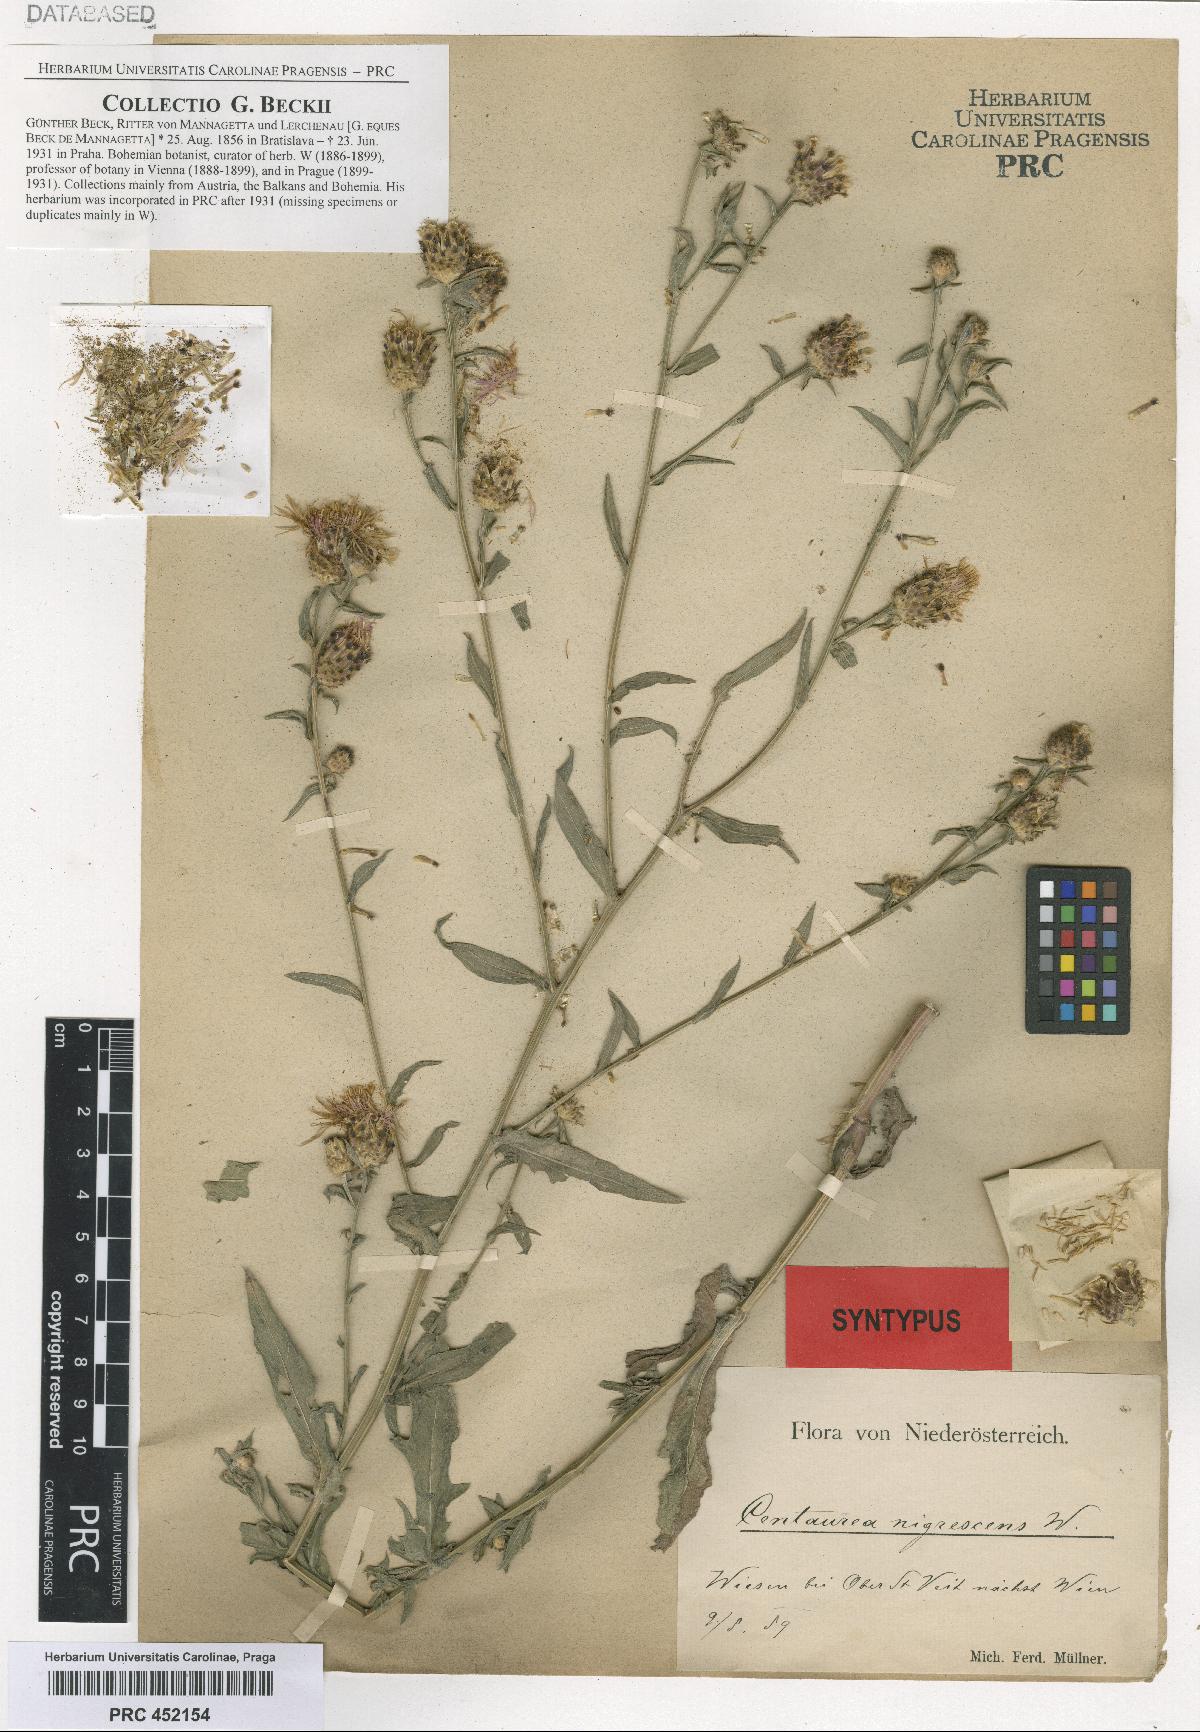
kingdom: Plantae
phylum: Tracheophyta
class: Magnoliopsida
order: Asterales
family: Asteraceae
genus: Centaurea
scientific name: Centaurea nigrescens
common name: Tyrol knapweed
